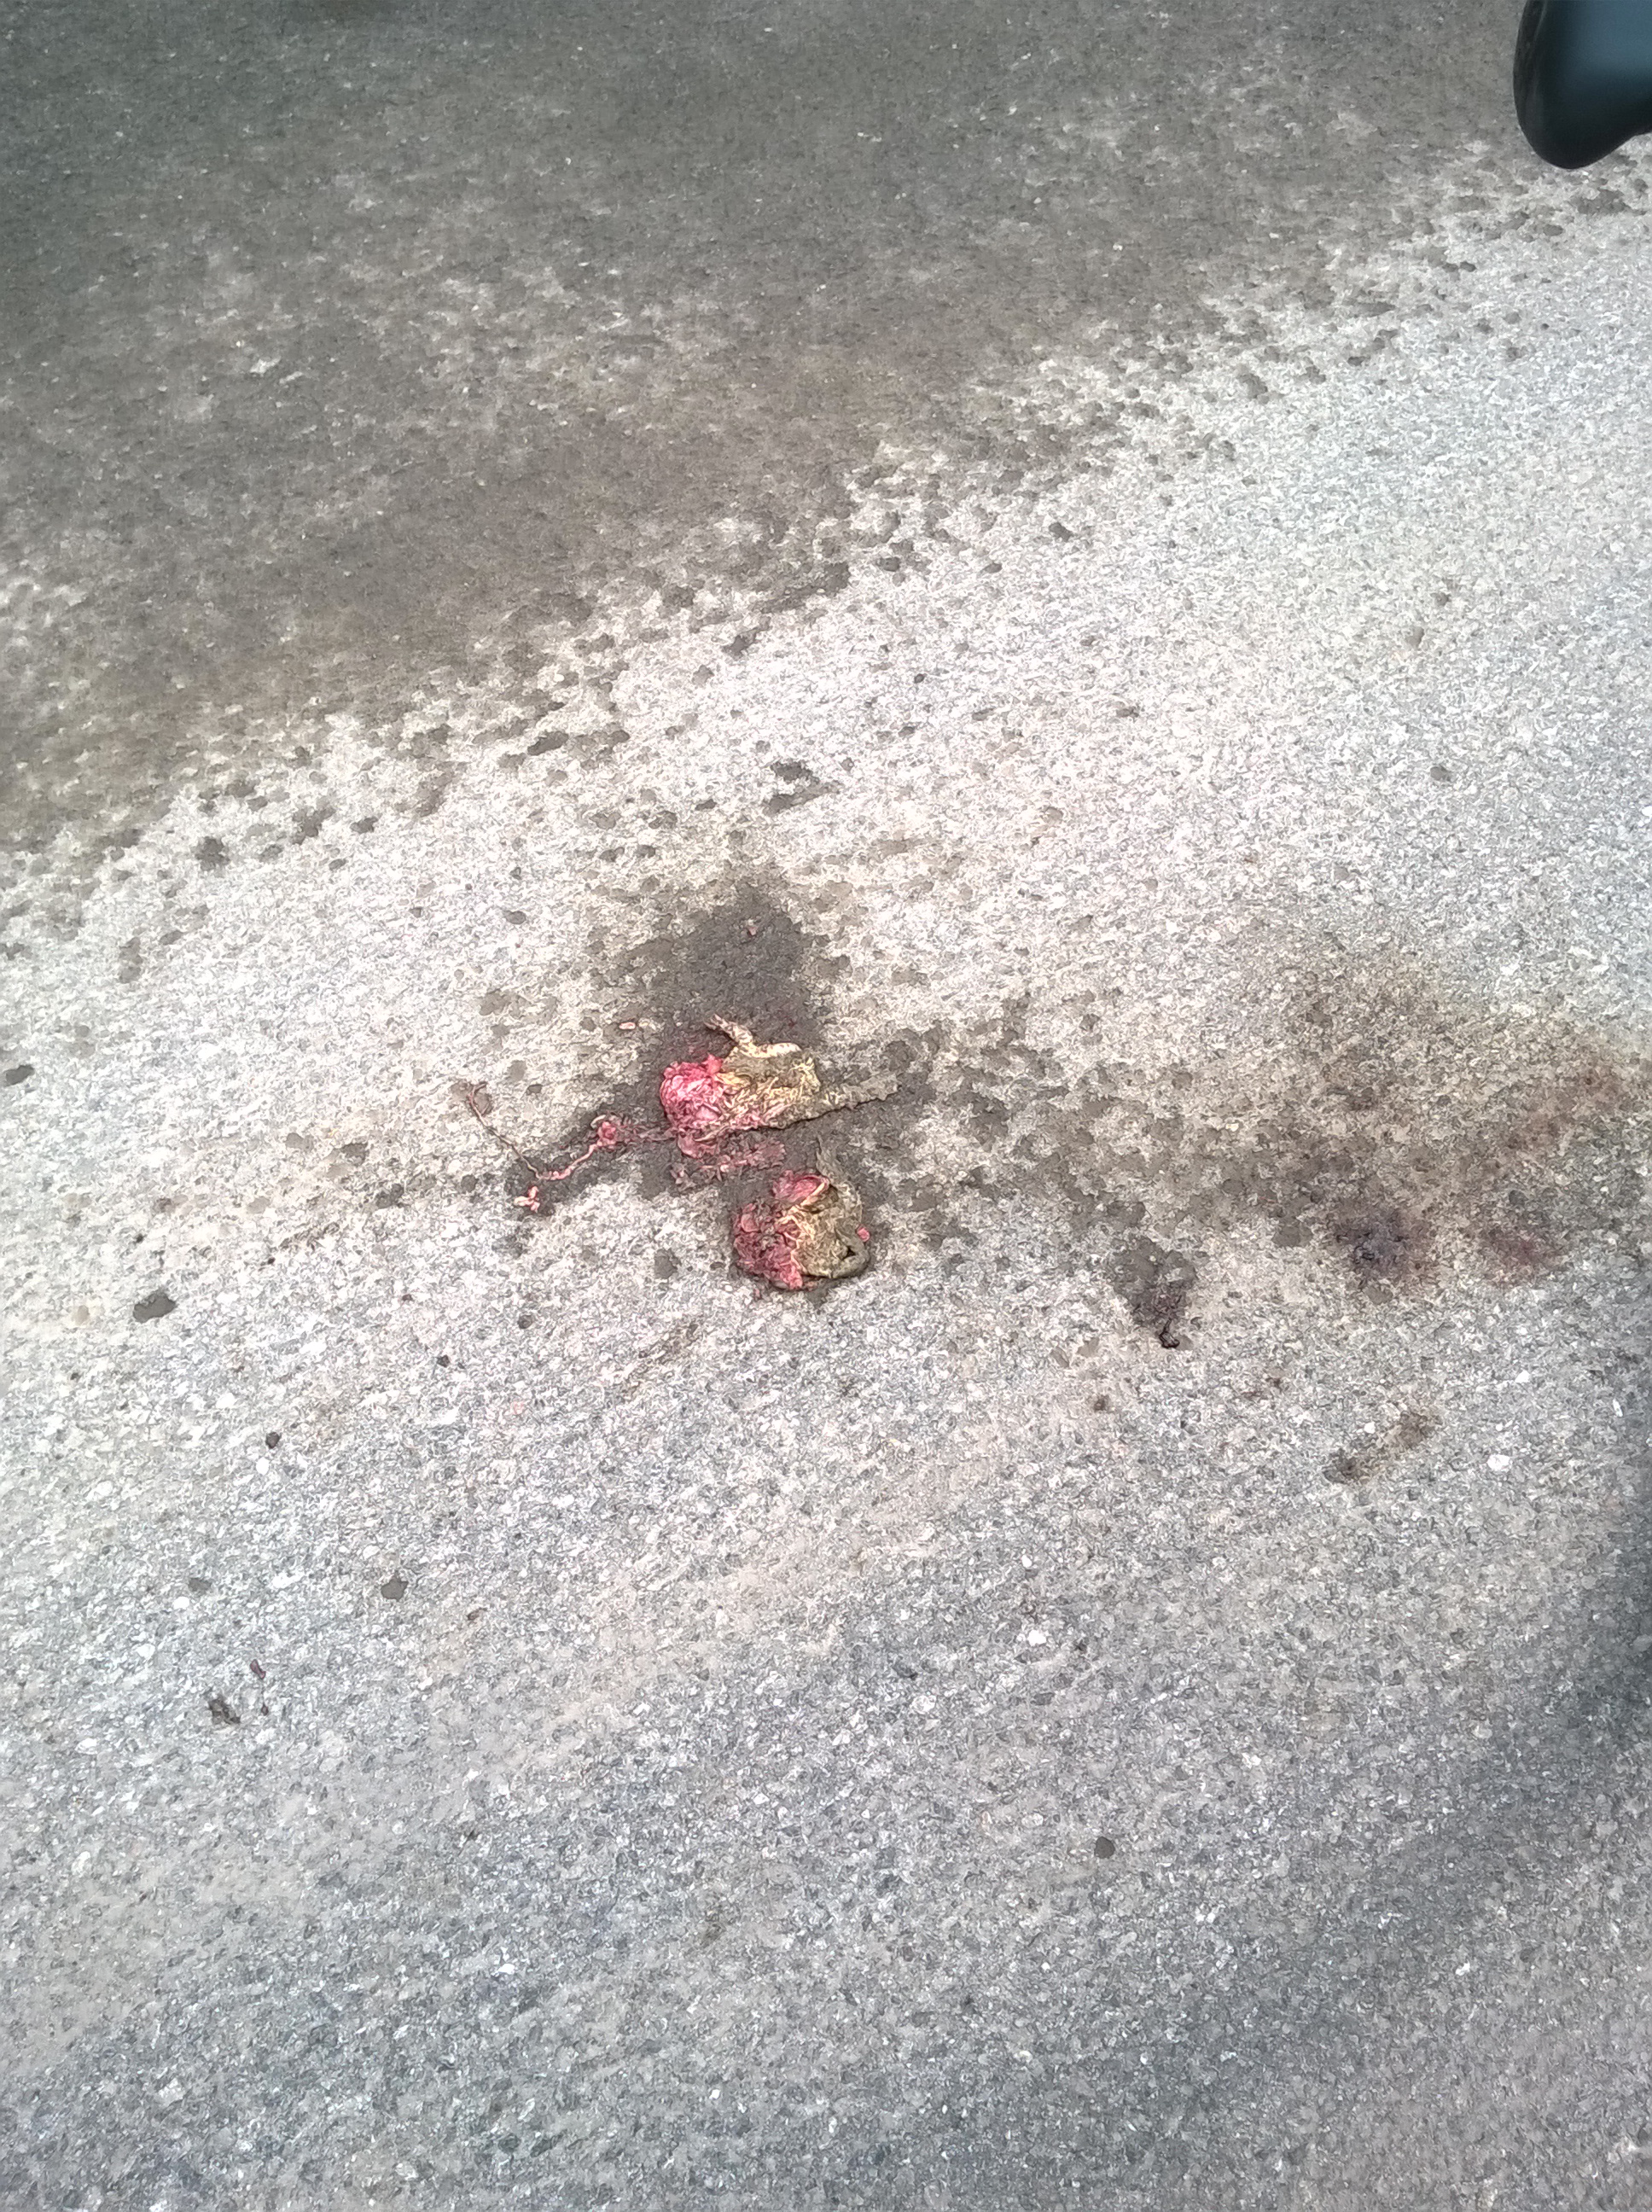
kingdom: Animalia
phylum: Chordata
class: Amphibia
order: Anura
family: Bufonidae
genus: Bufo
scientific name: Bufo bufo
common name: Common toad
